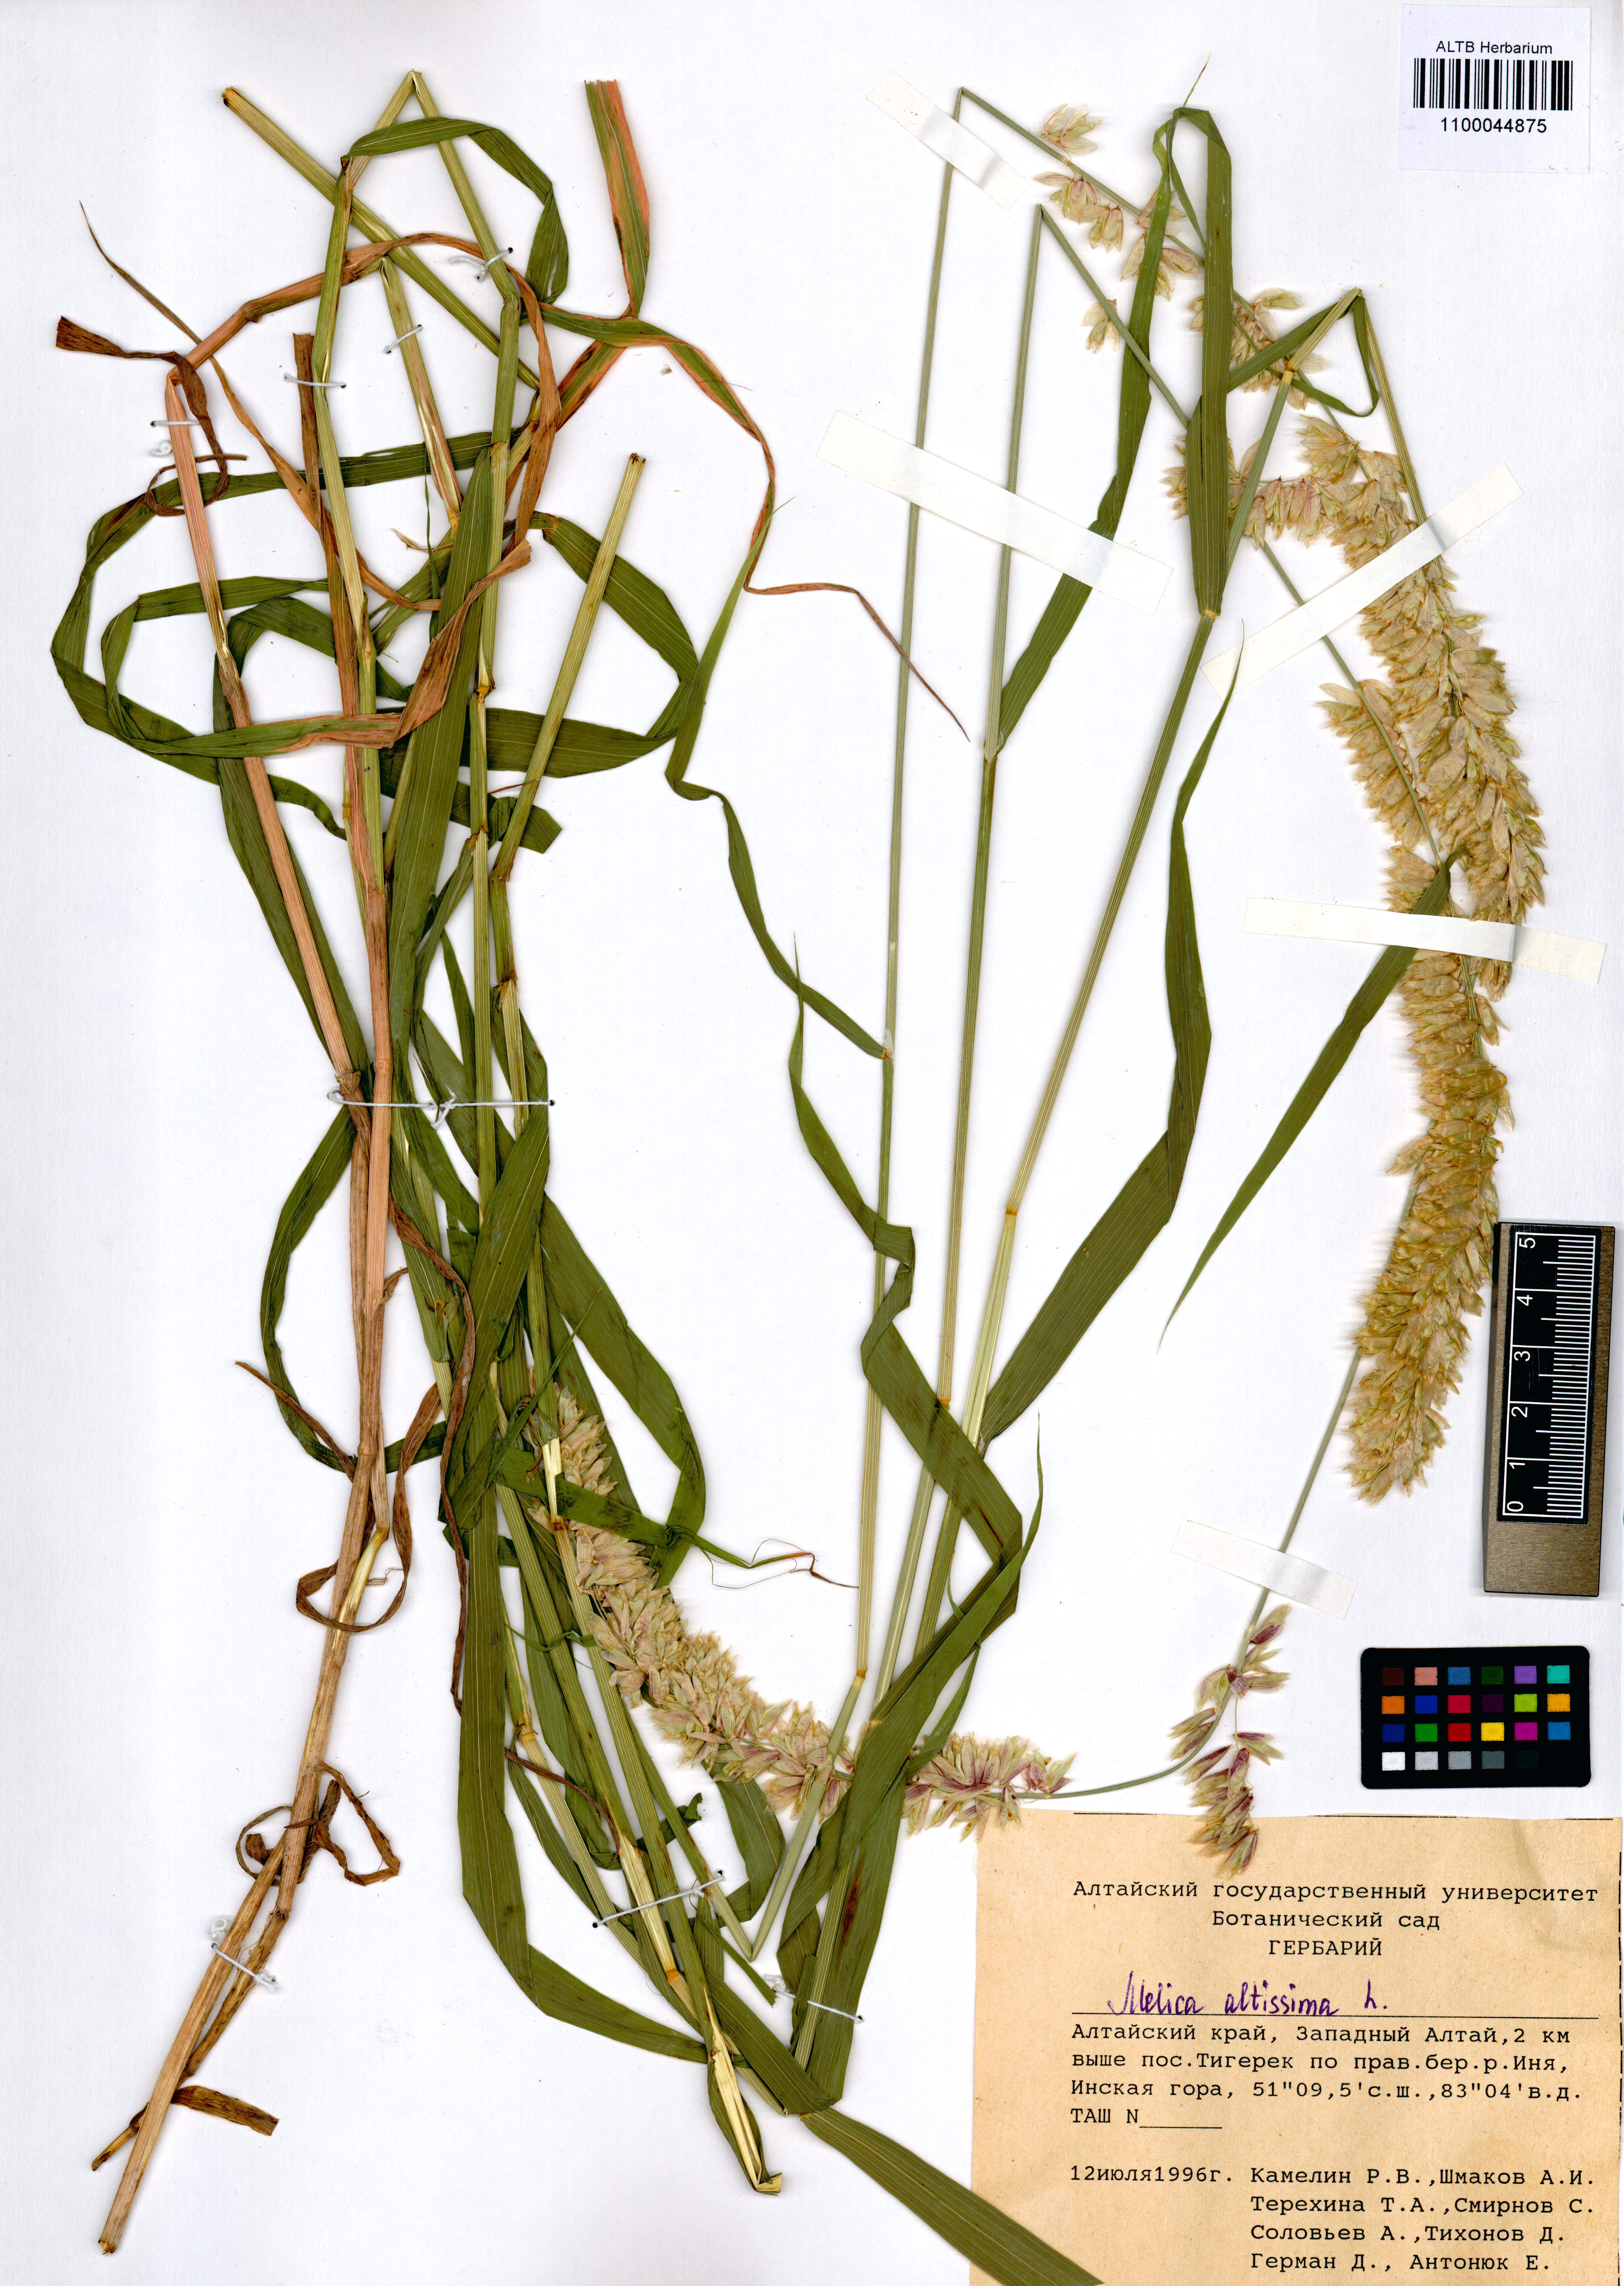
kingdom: Plantae
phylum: Tracheophyta
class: Magnoliopsida
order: Brassicales
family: Brassicaceae
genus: Isatis
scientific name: Isatis costata
